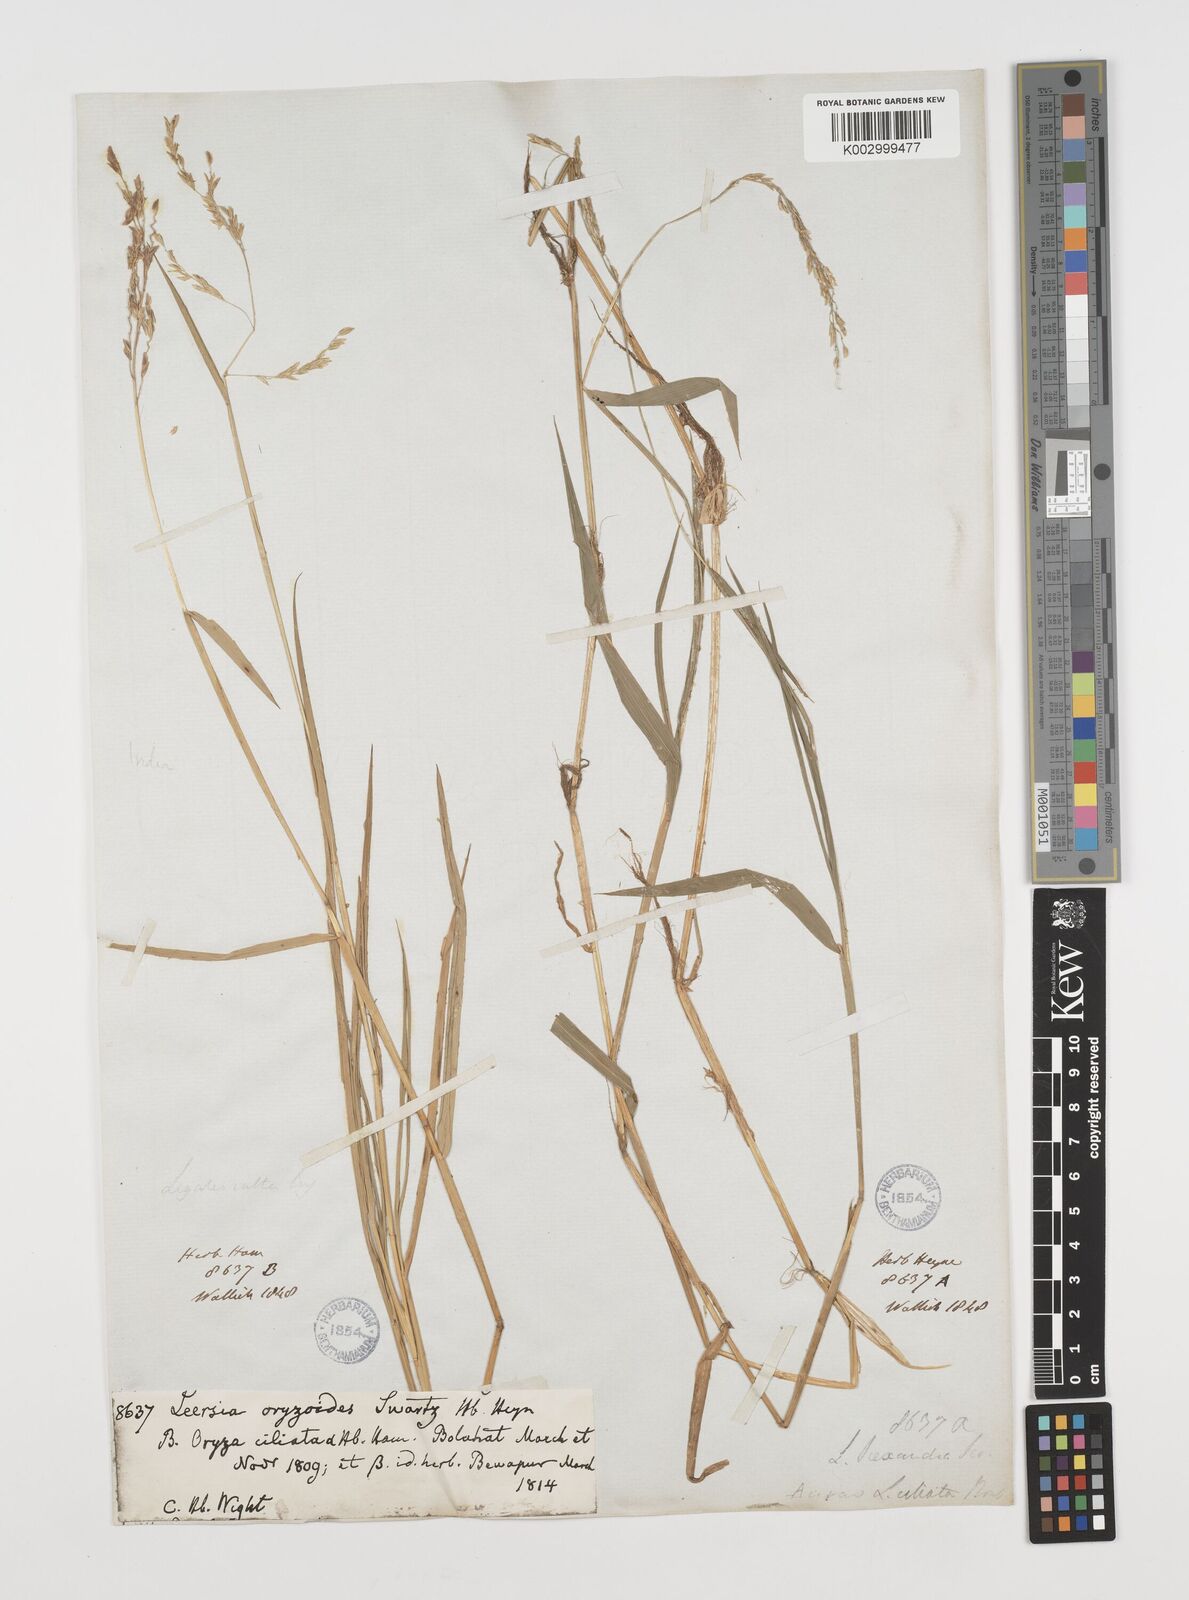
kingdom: Plantae
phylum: Tracheophyta
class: Liliopsida
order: Poales
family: Poaceae
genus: Leersia
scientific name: Leersia hexandra
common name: Southern cut grass
